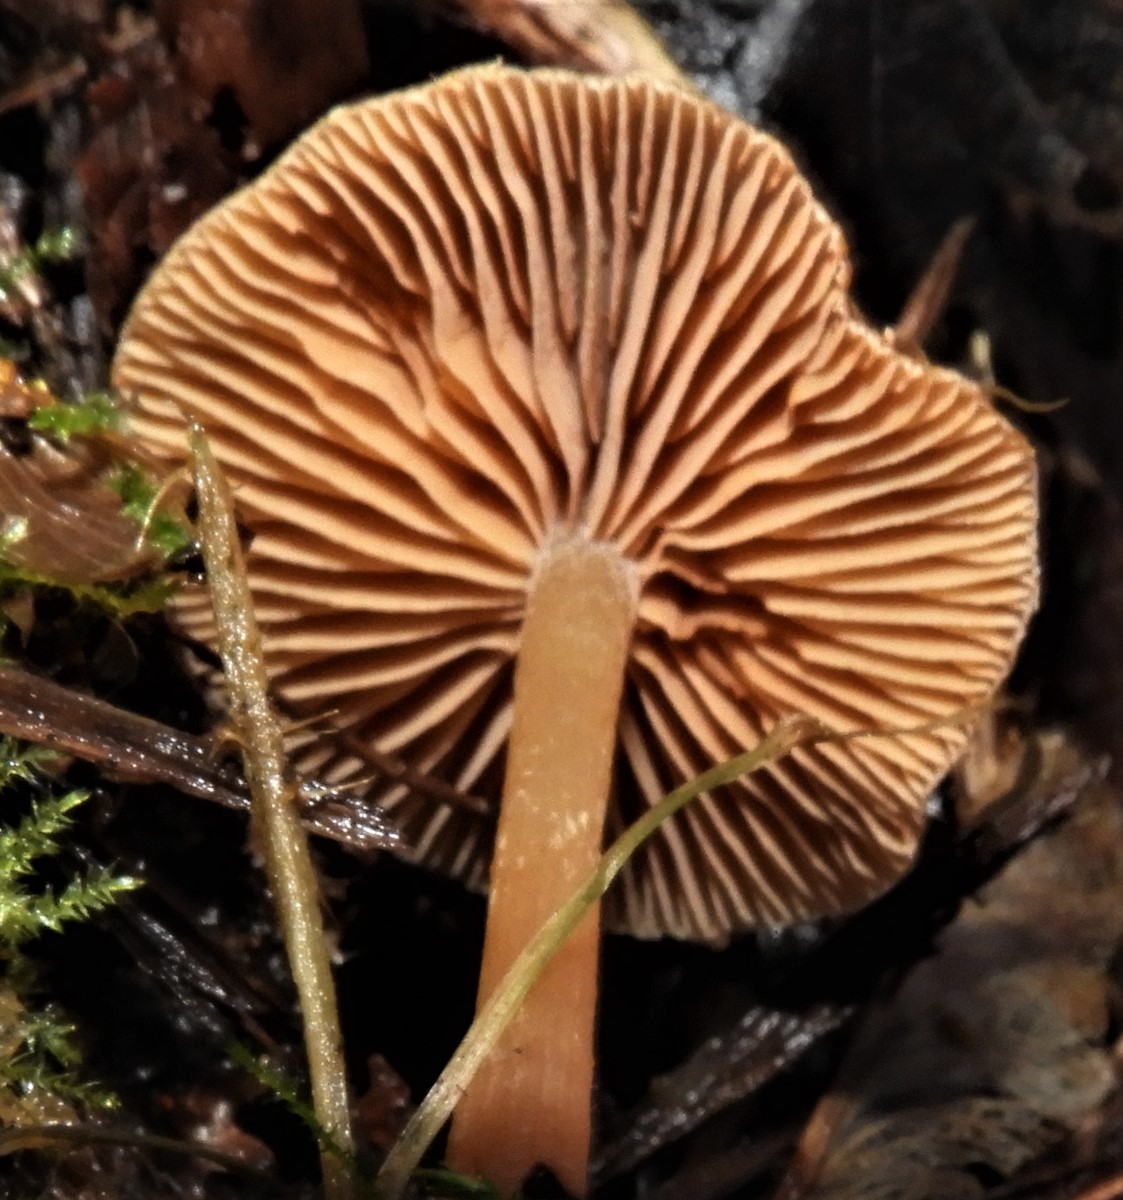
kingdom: Fungi
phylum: Basidiomycota
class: Agaricomycetes
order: Agaricales
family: Tubariaceae
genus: Tubaria
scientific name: Tubaria furfuracea
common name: kliddet fnughat
